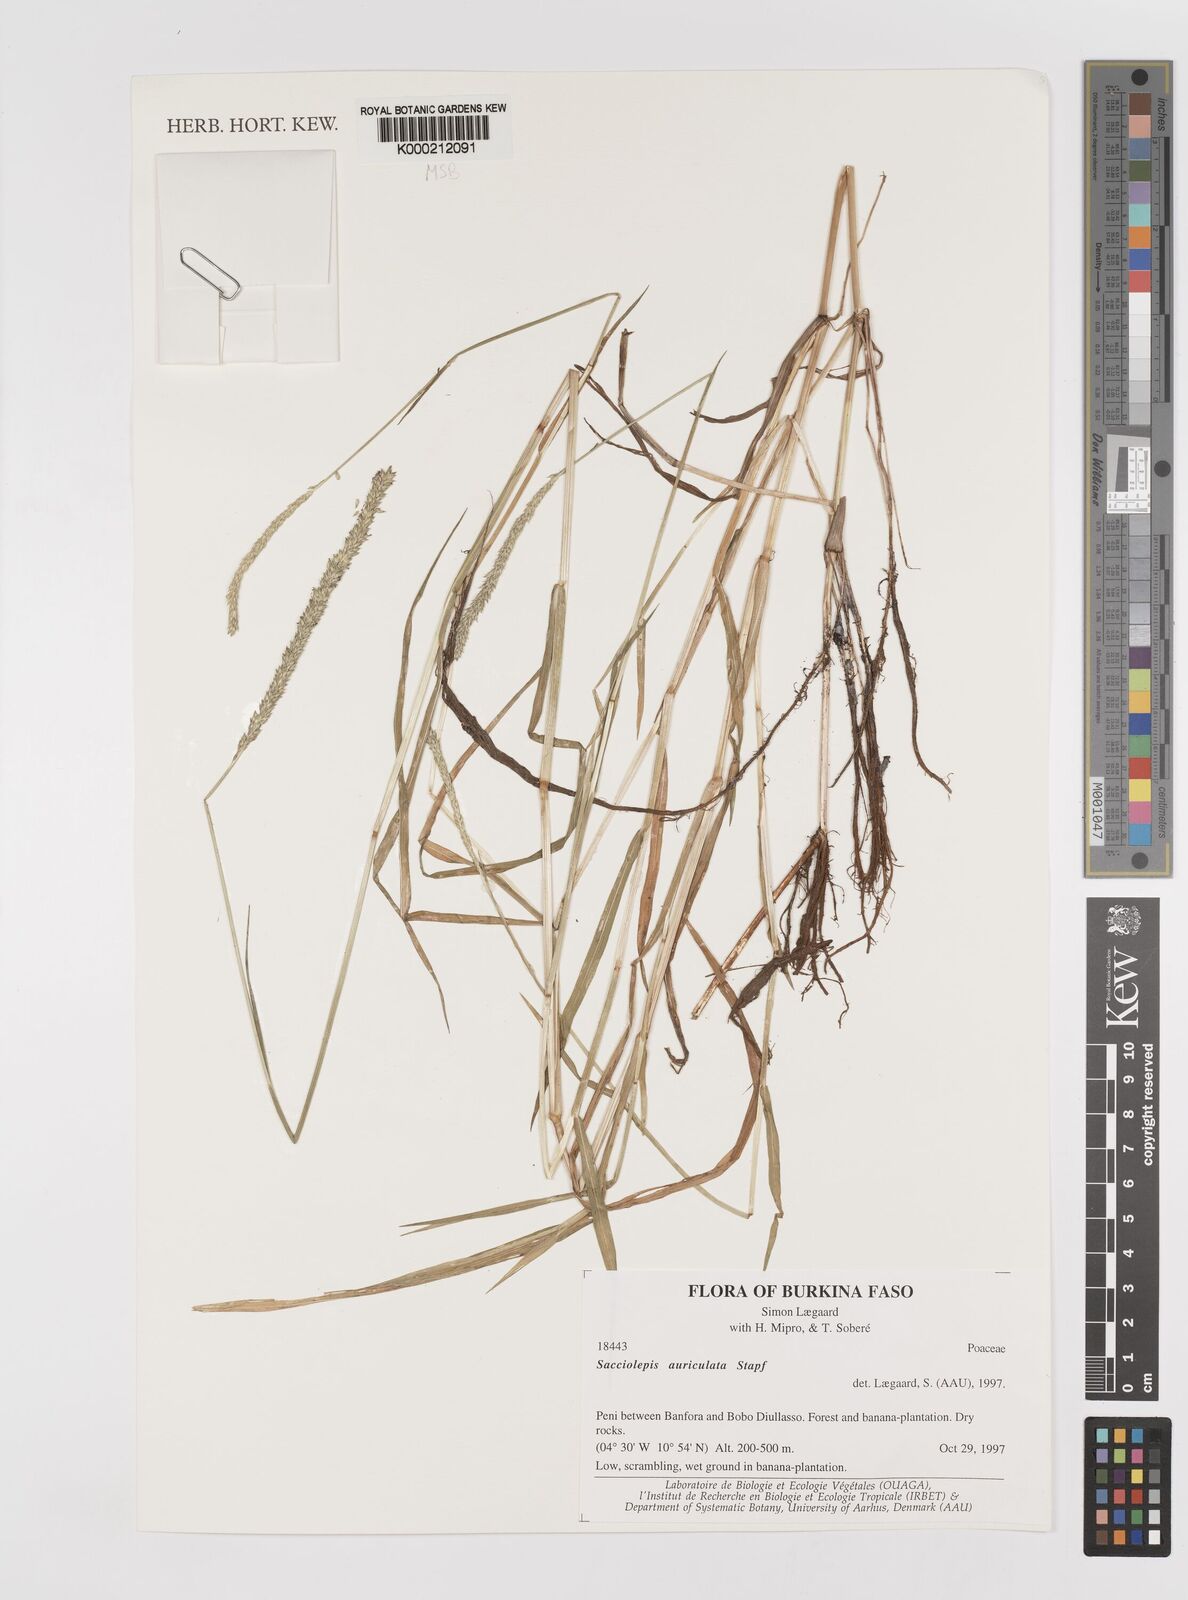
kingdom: Plantae
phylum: Tracheophyta
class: Liliopsida
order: Poales
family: Poaceae
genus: Sacciolepis
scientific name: Sacciolepis indica
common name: Glenwoodgrass
